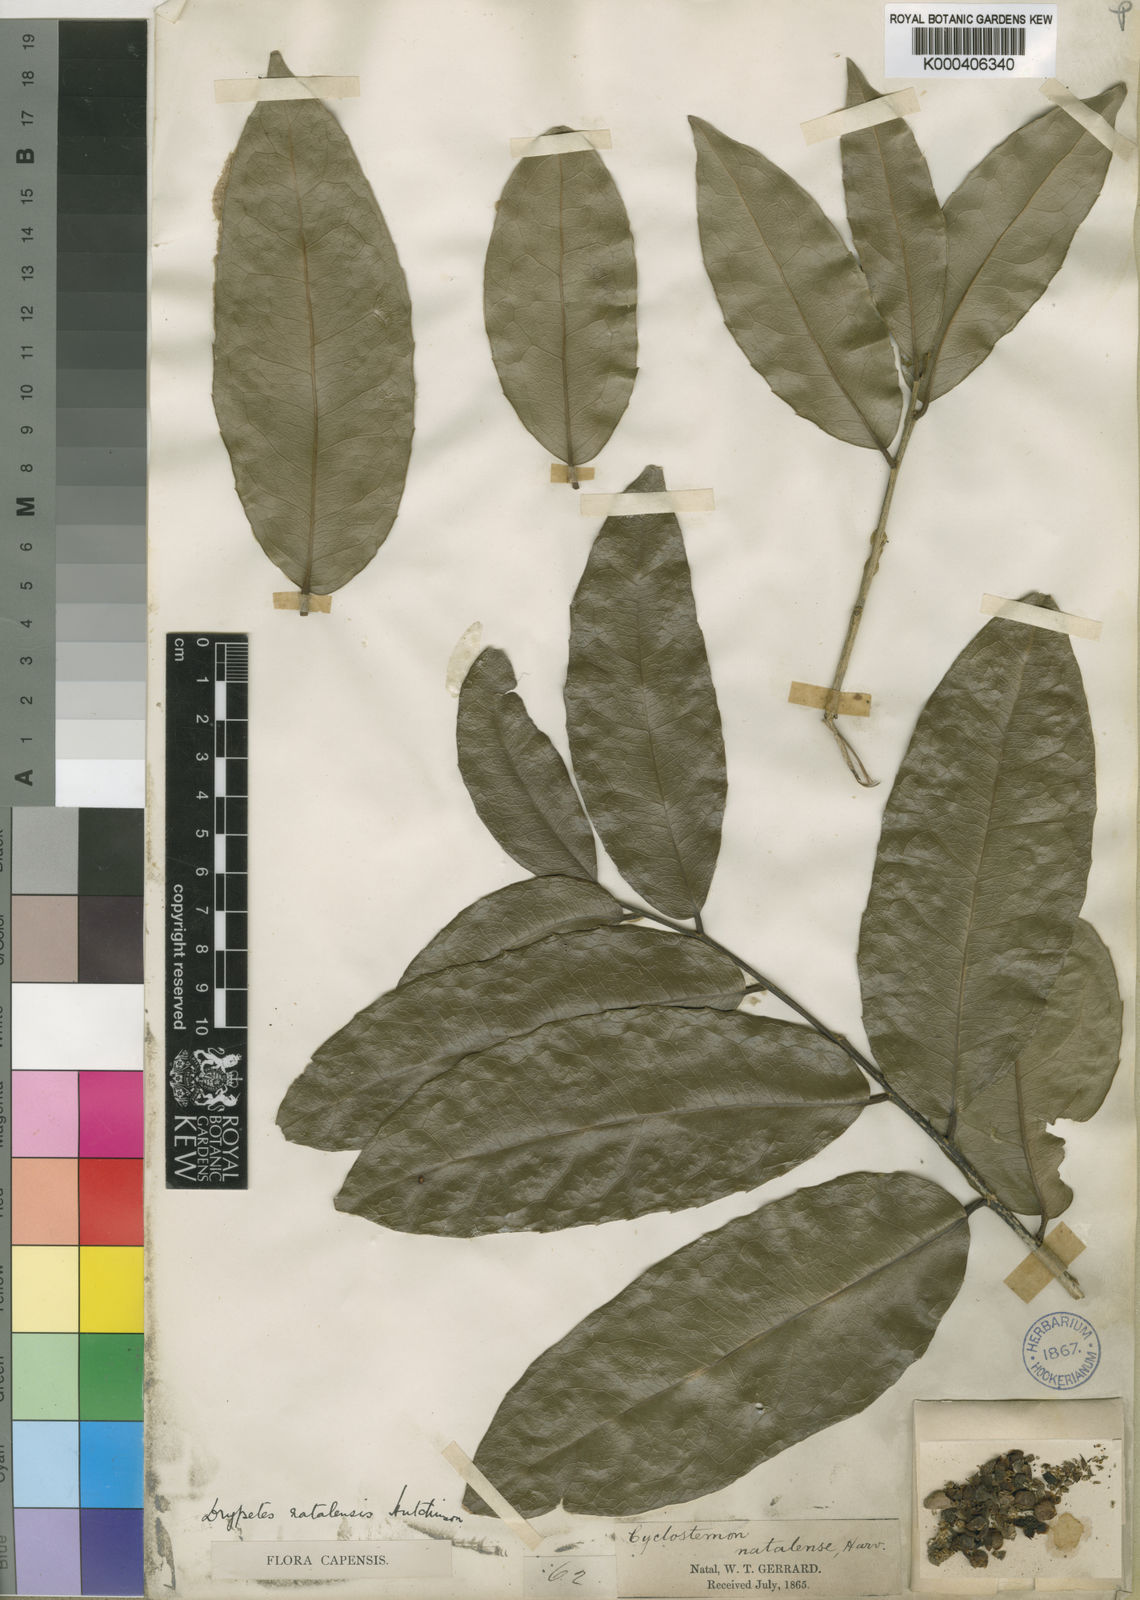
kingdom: Plantae
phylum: Tracheophyta
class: Magnoliopsida
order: Malpighiales
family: Putranjivaceae
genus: Drypetes
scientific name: Drypetes natalensis
